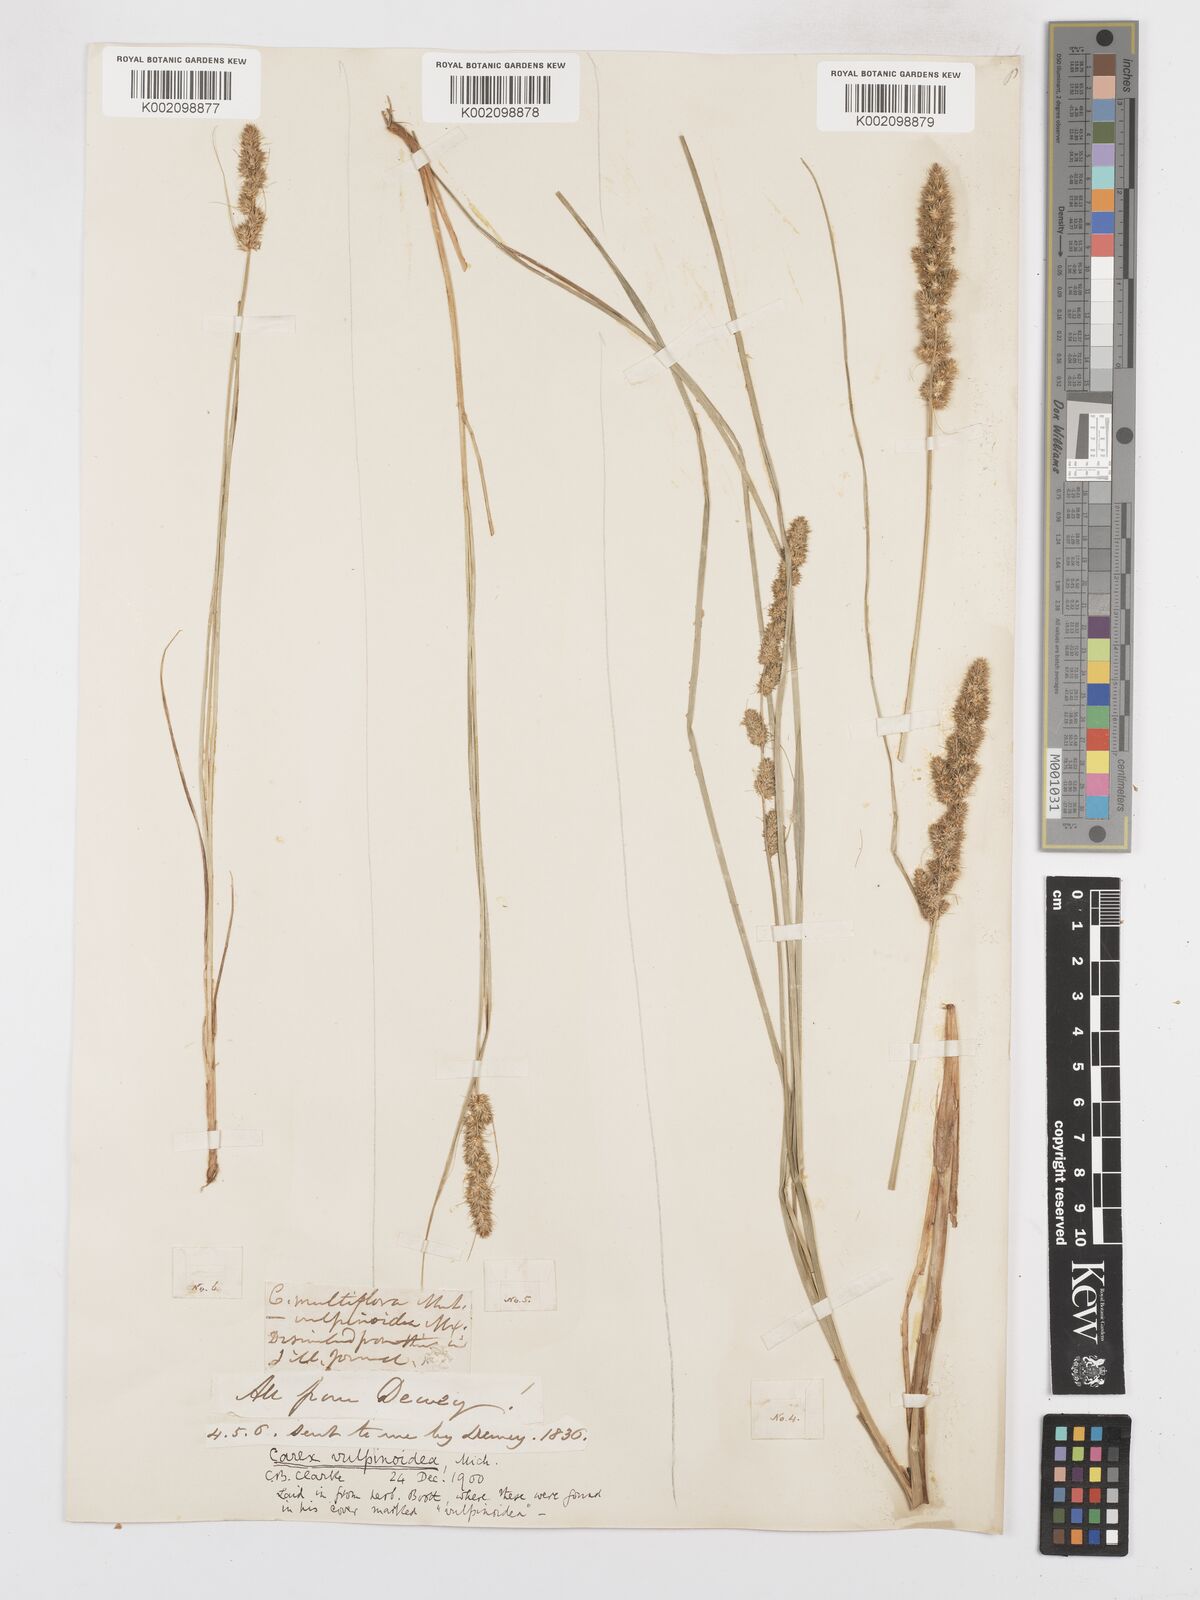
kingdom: Plantae
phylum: Tracheophyta
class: Liliopsida
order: Poales
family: Cyperaceae
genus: Carex
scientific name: Carex vulpinoidea
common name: American fox-sedge
